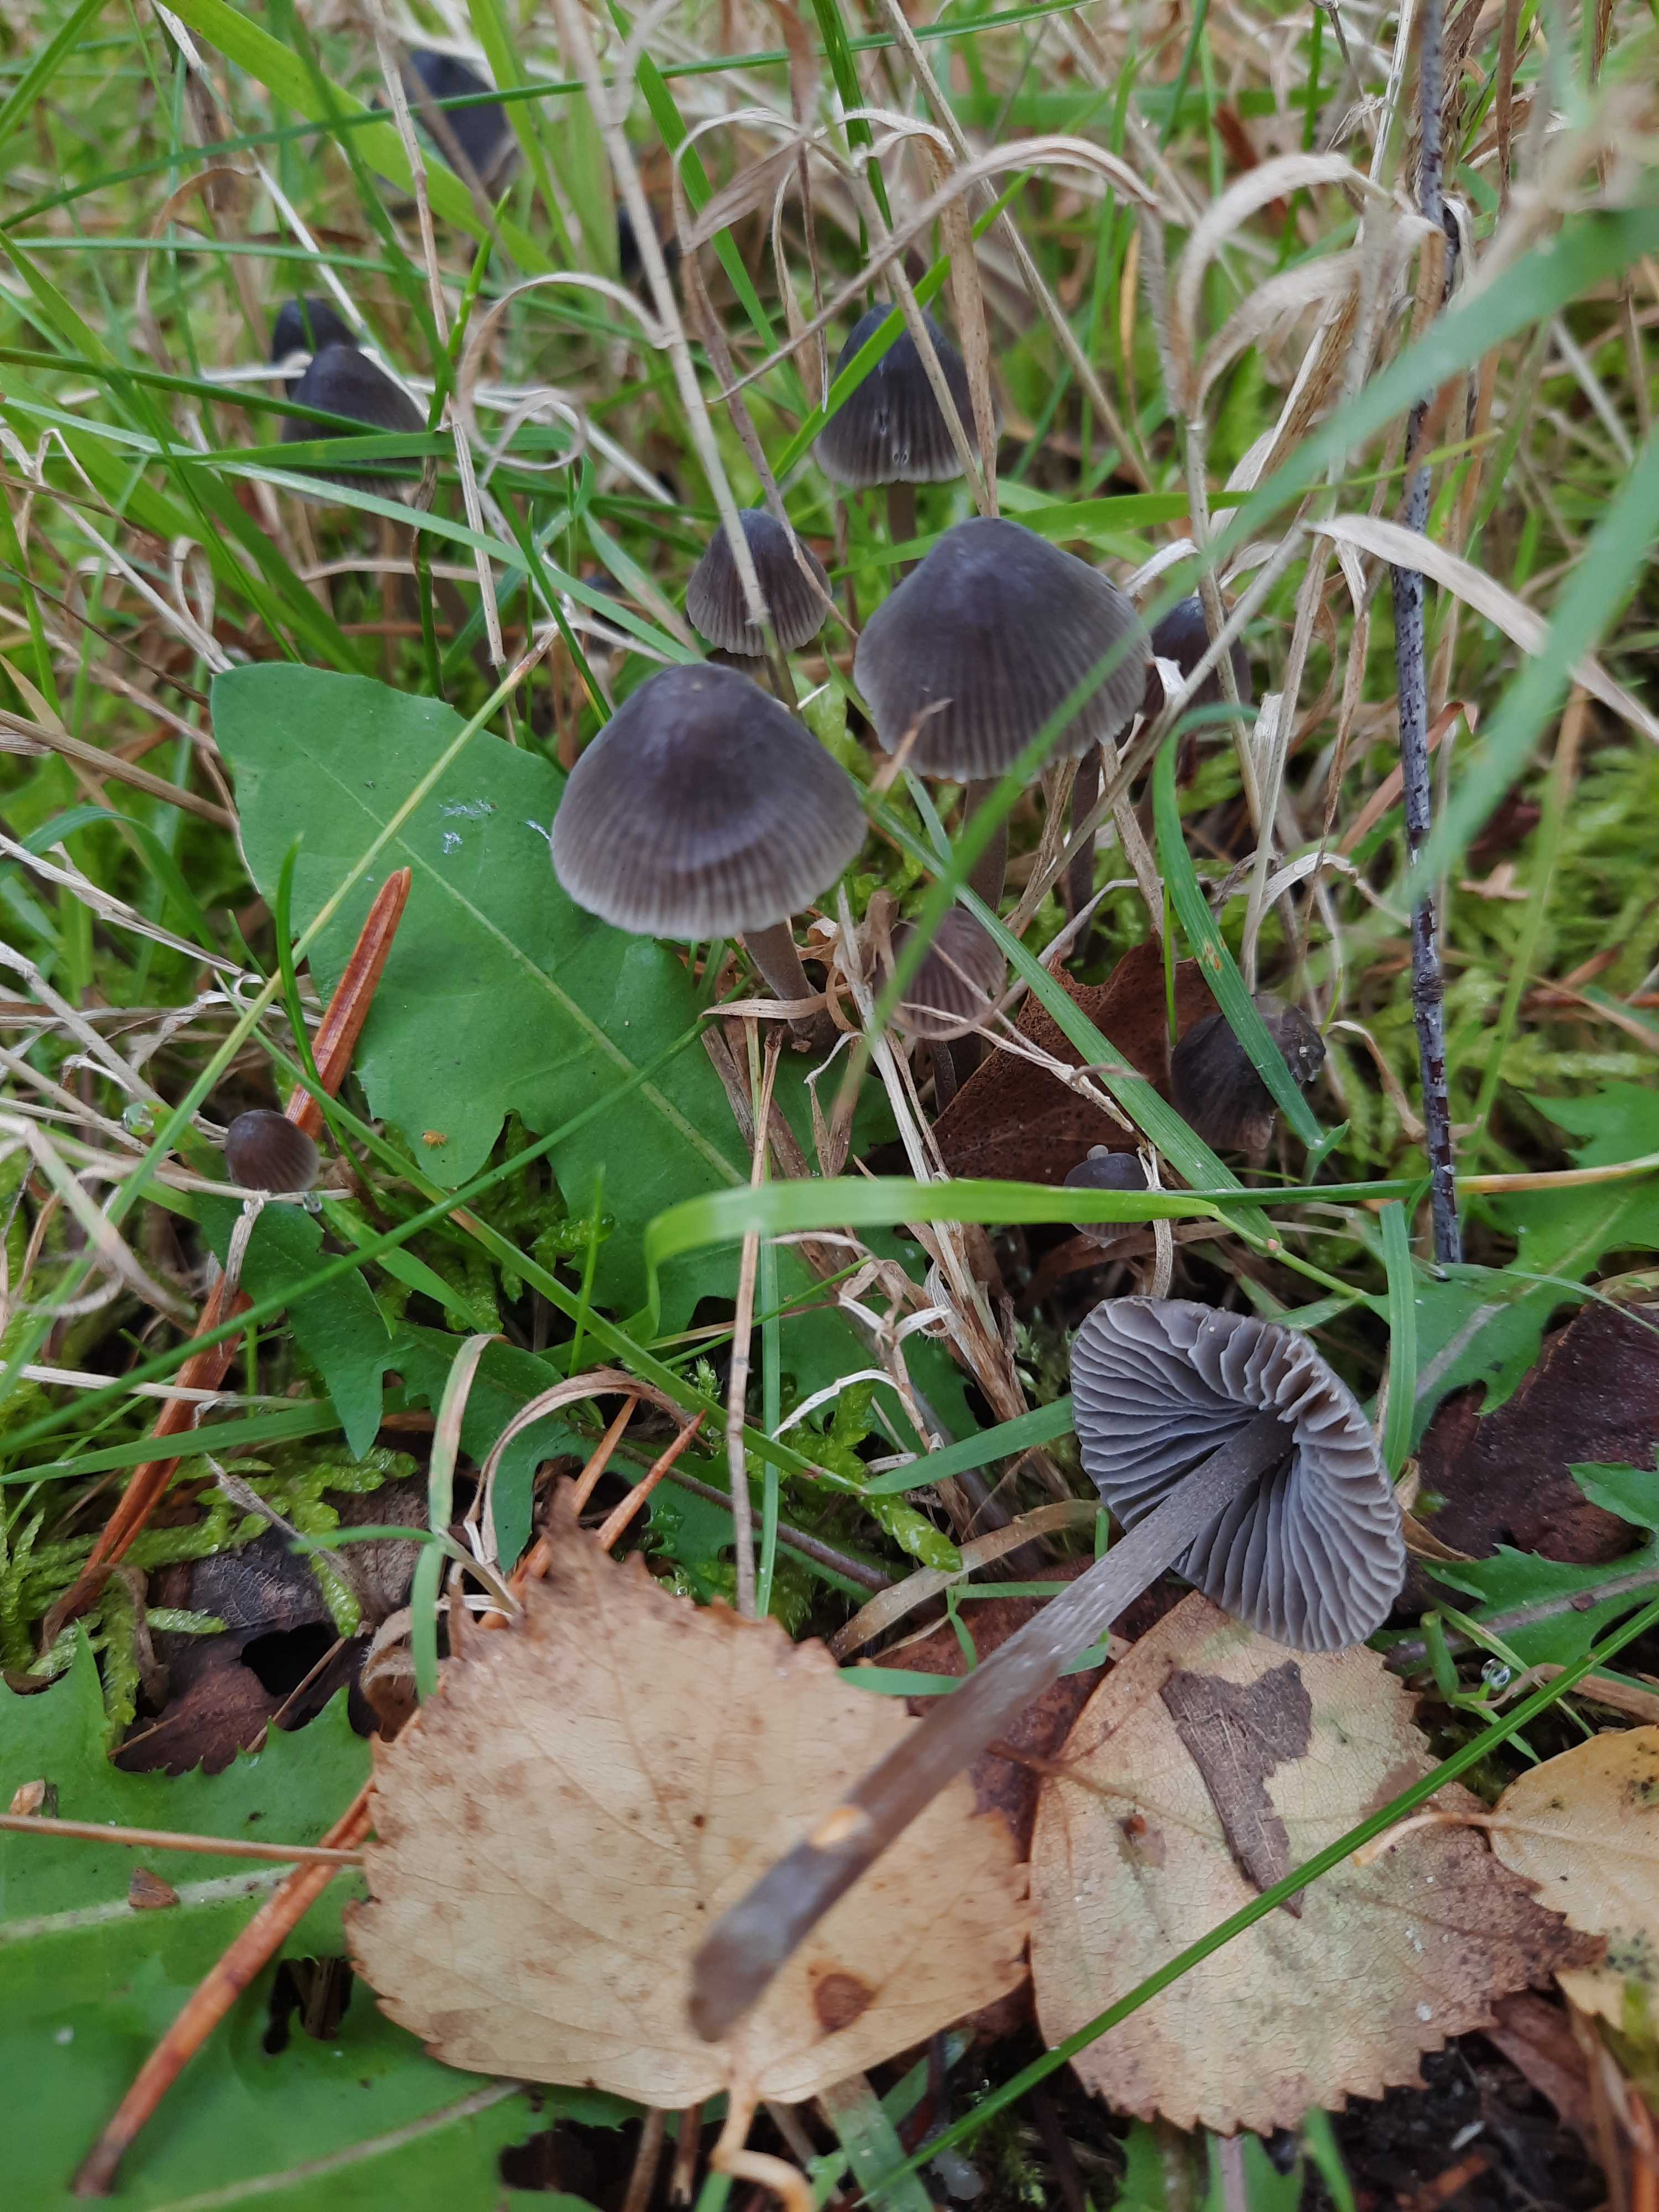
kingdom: Fungi
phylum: Basidiomycota
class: Agaricomycetes
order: Agaricales
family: Mycenaceae
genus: Mycena
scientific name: Mycena leptocephala
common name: klor-huesvamp
